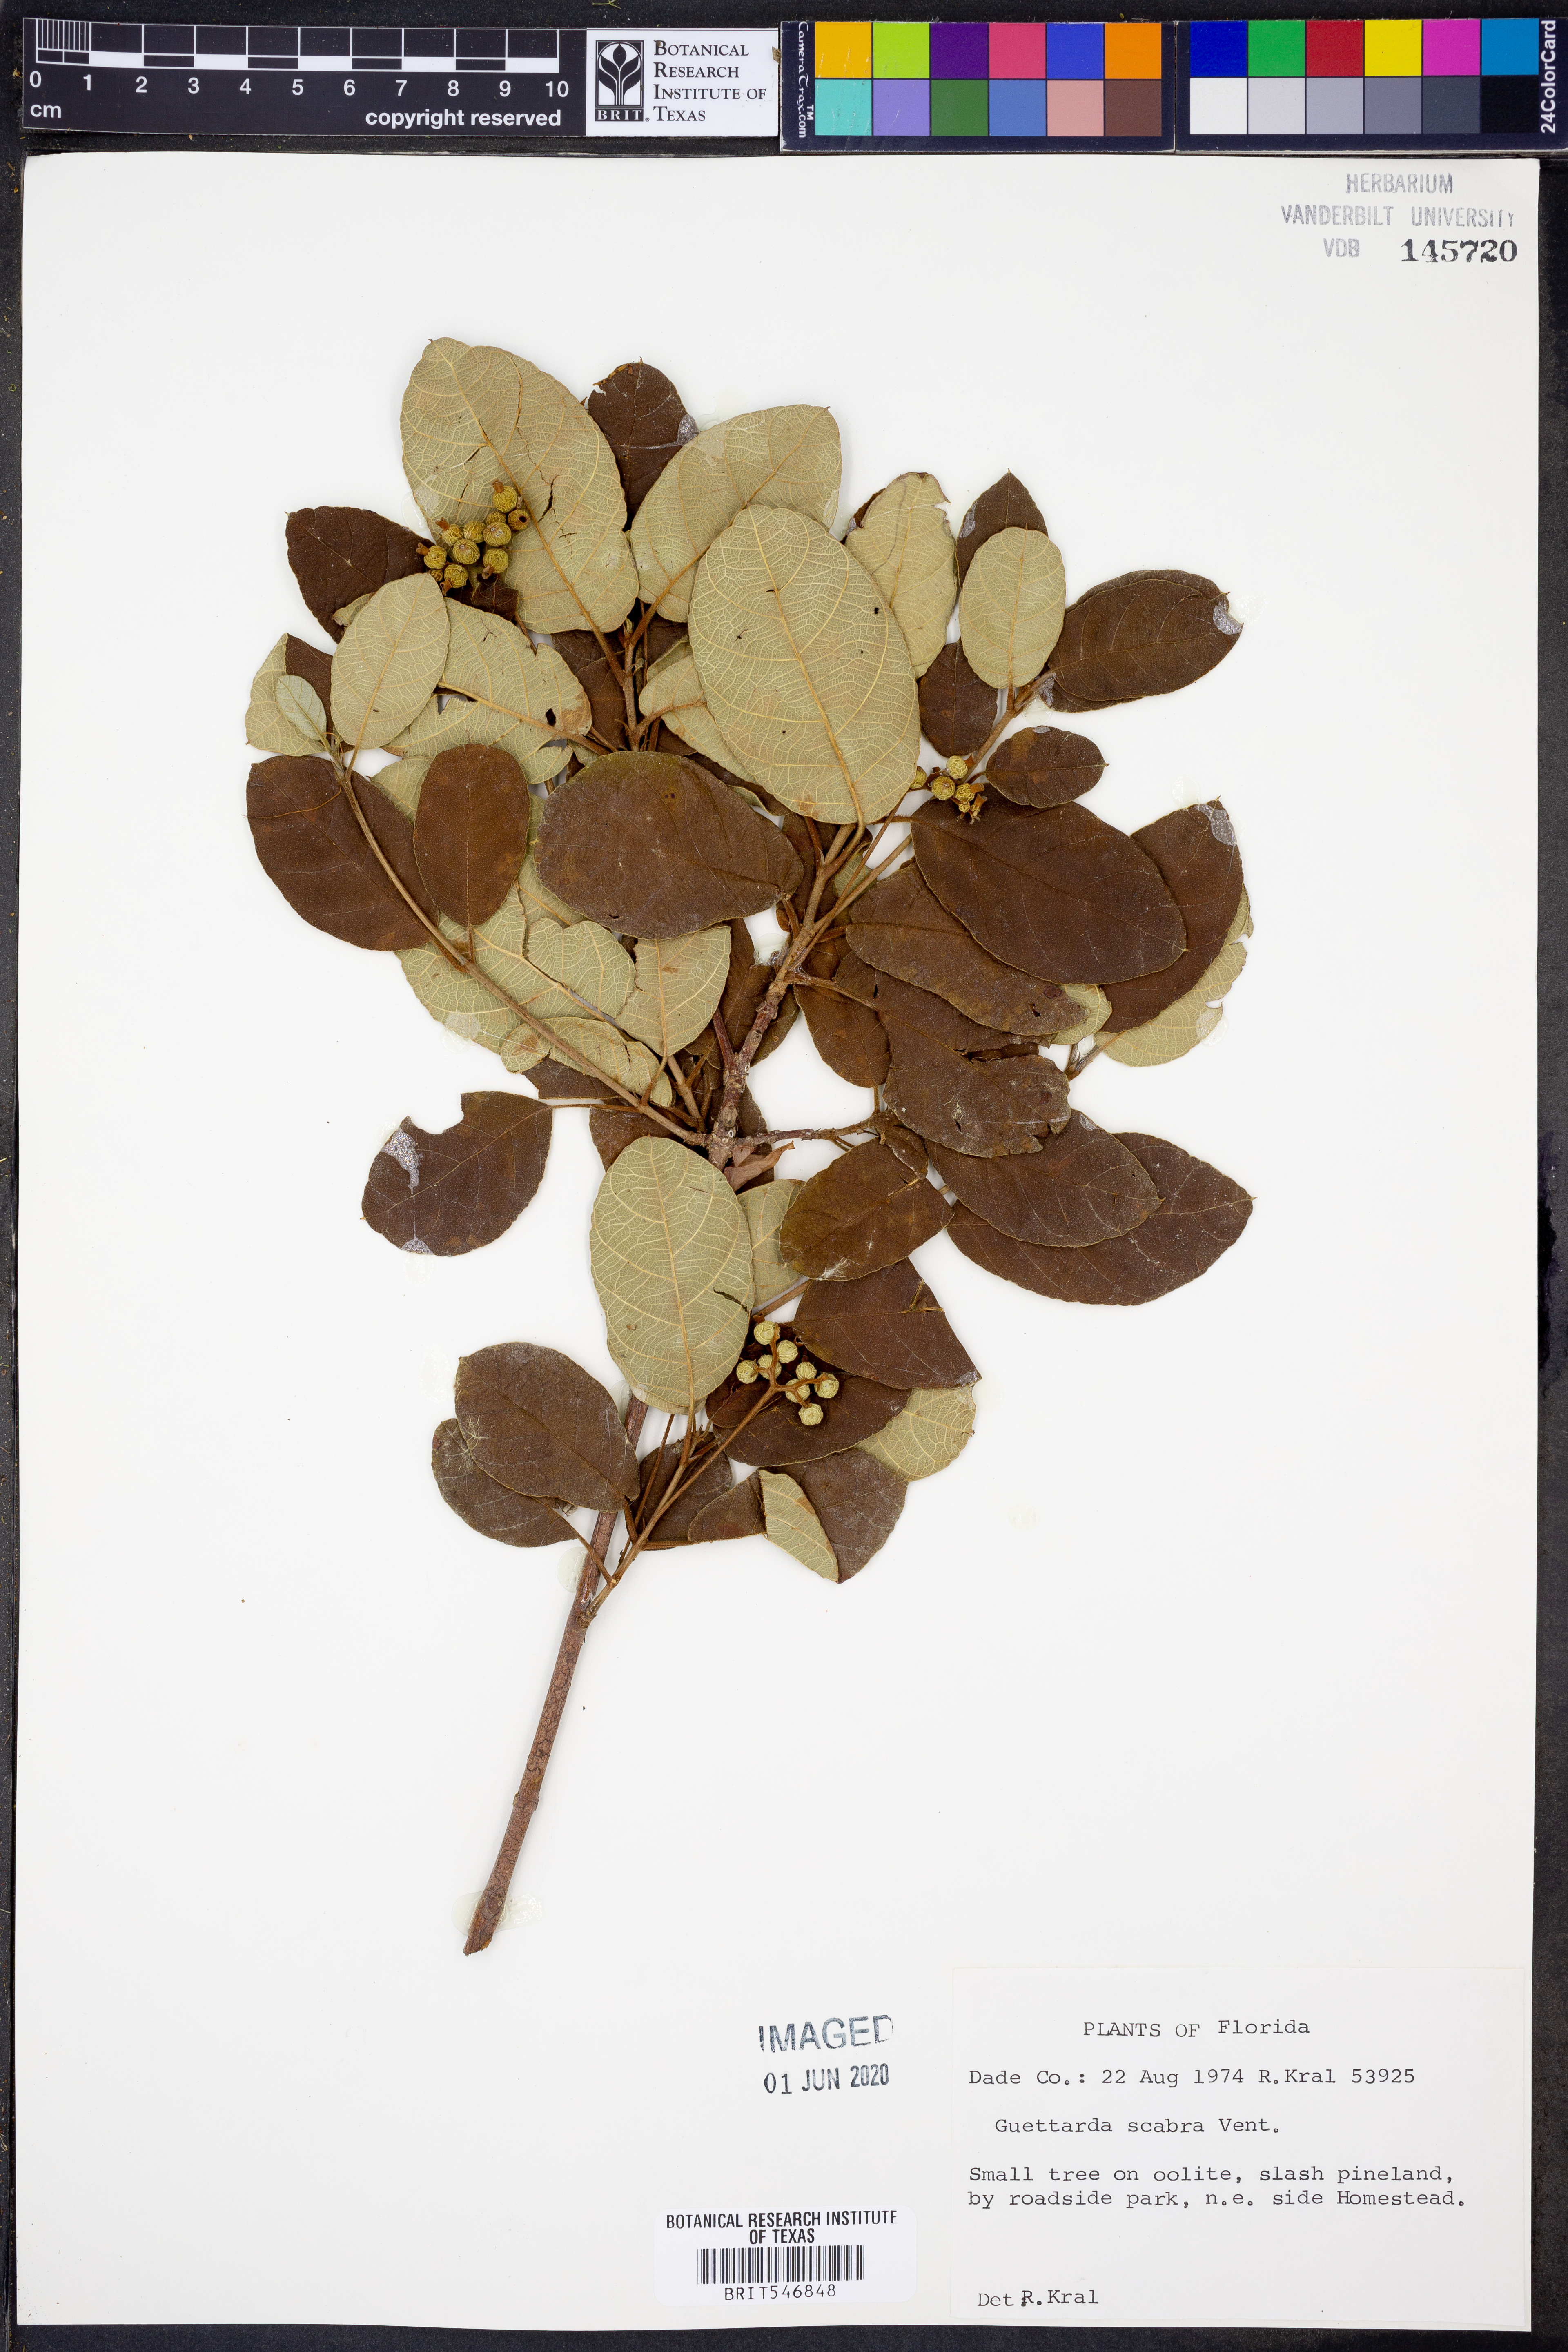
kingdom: Plantae
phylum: Tracheophyta
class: Magnoliopsida
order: Gentianales
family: Rubiaceae
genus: Guettarda
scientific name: Guettarda scabra
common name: Pigeon bay
